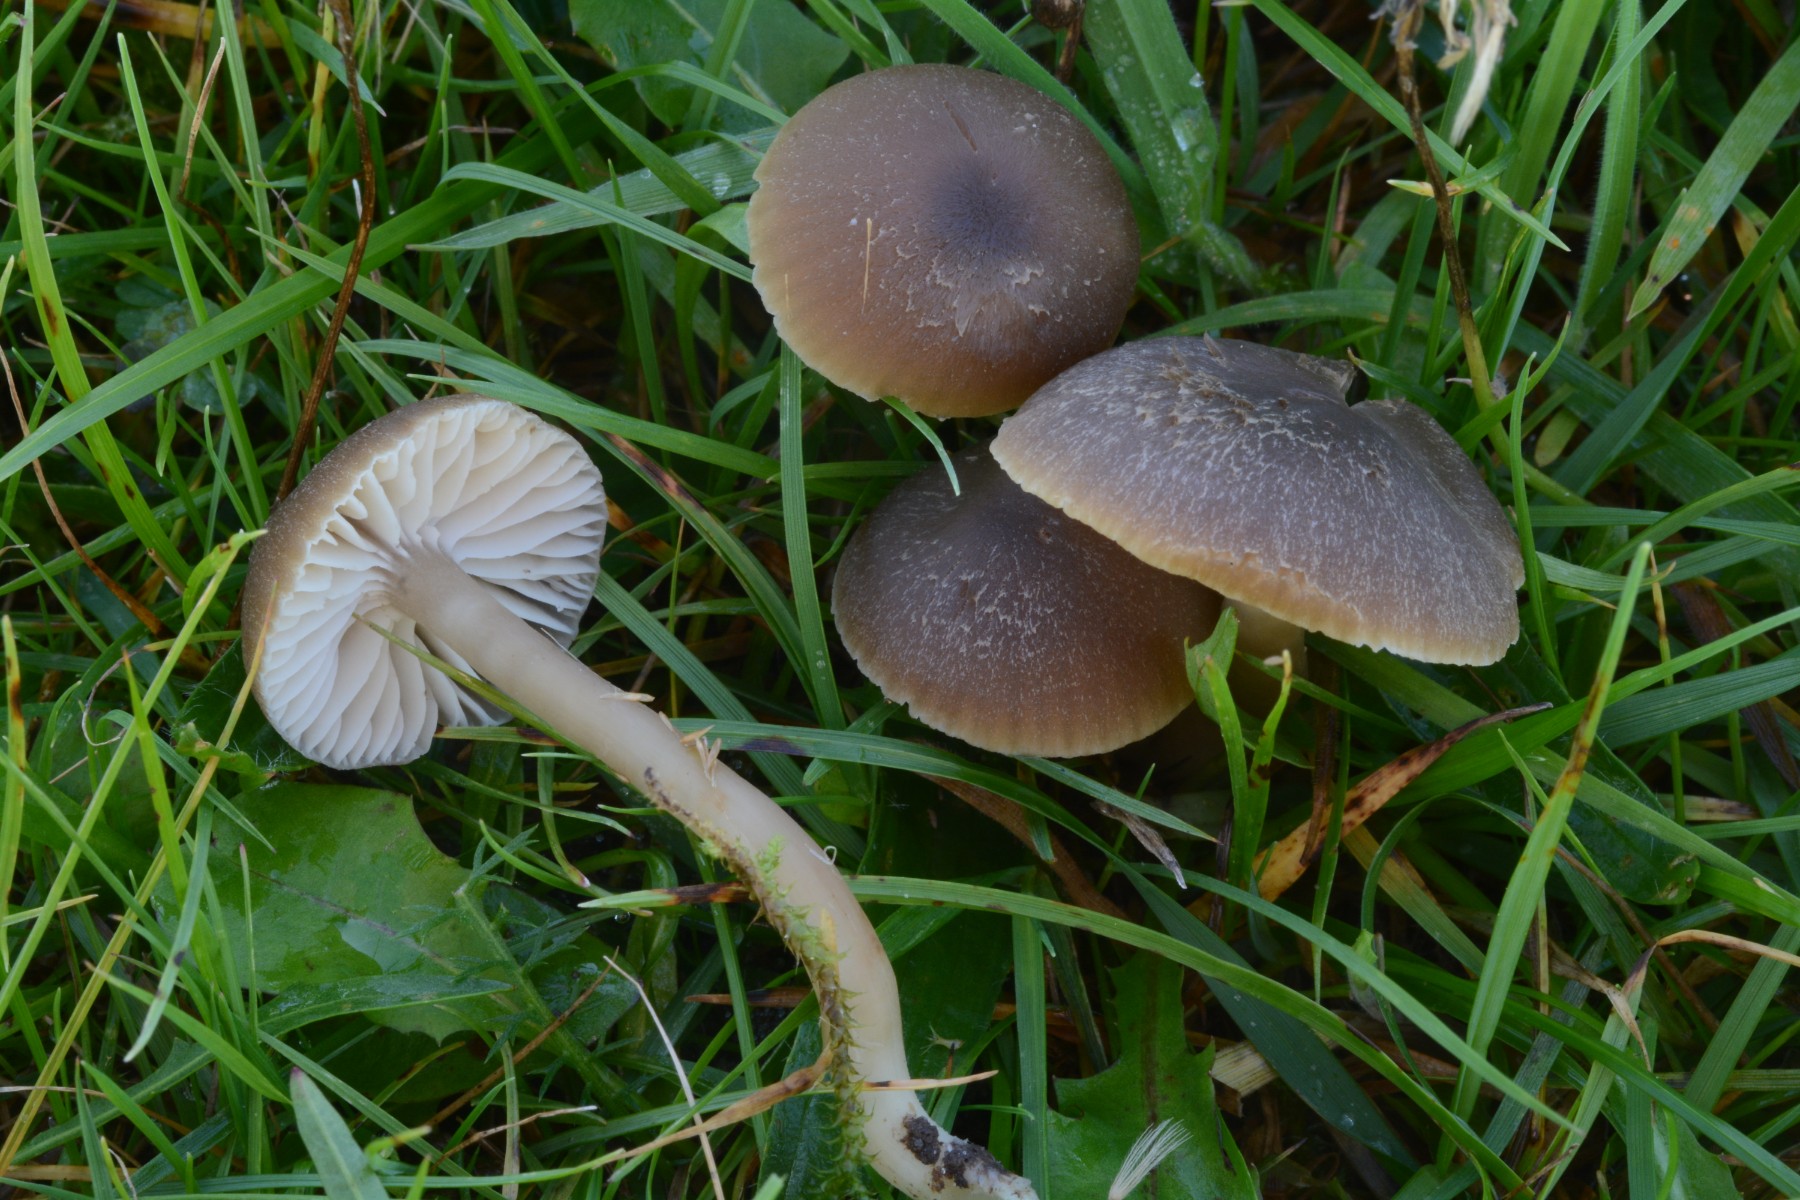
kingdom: Fungi
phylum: Basidiomycota
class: Agaricomycetes
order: Agaricales
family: Hygrophoraceae
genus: Neohygrocybe
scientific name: Neohygrocybe nitrata
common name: stinkende vokshat
